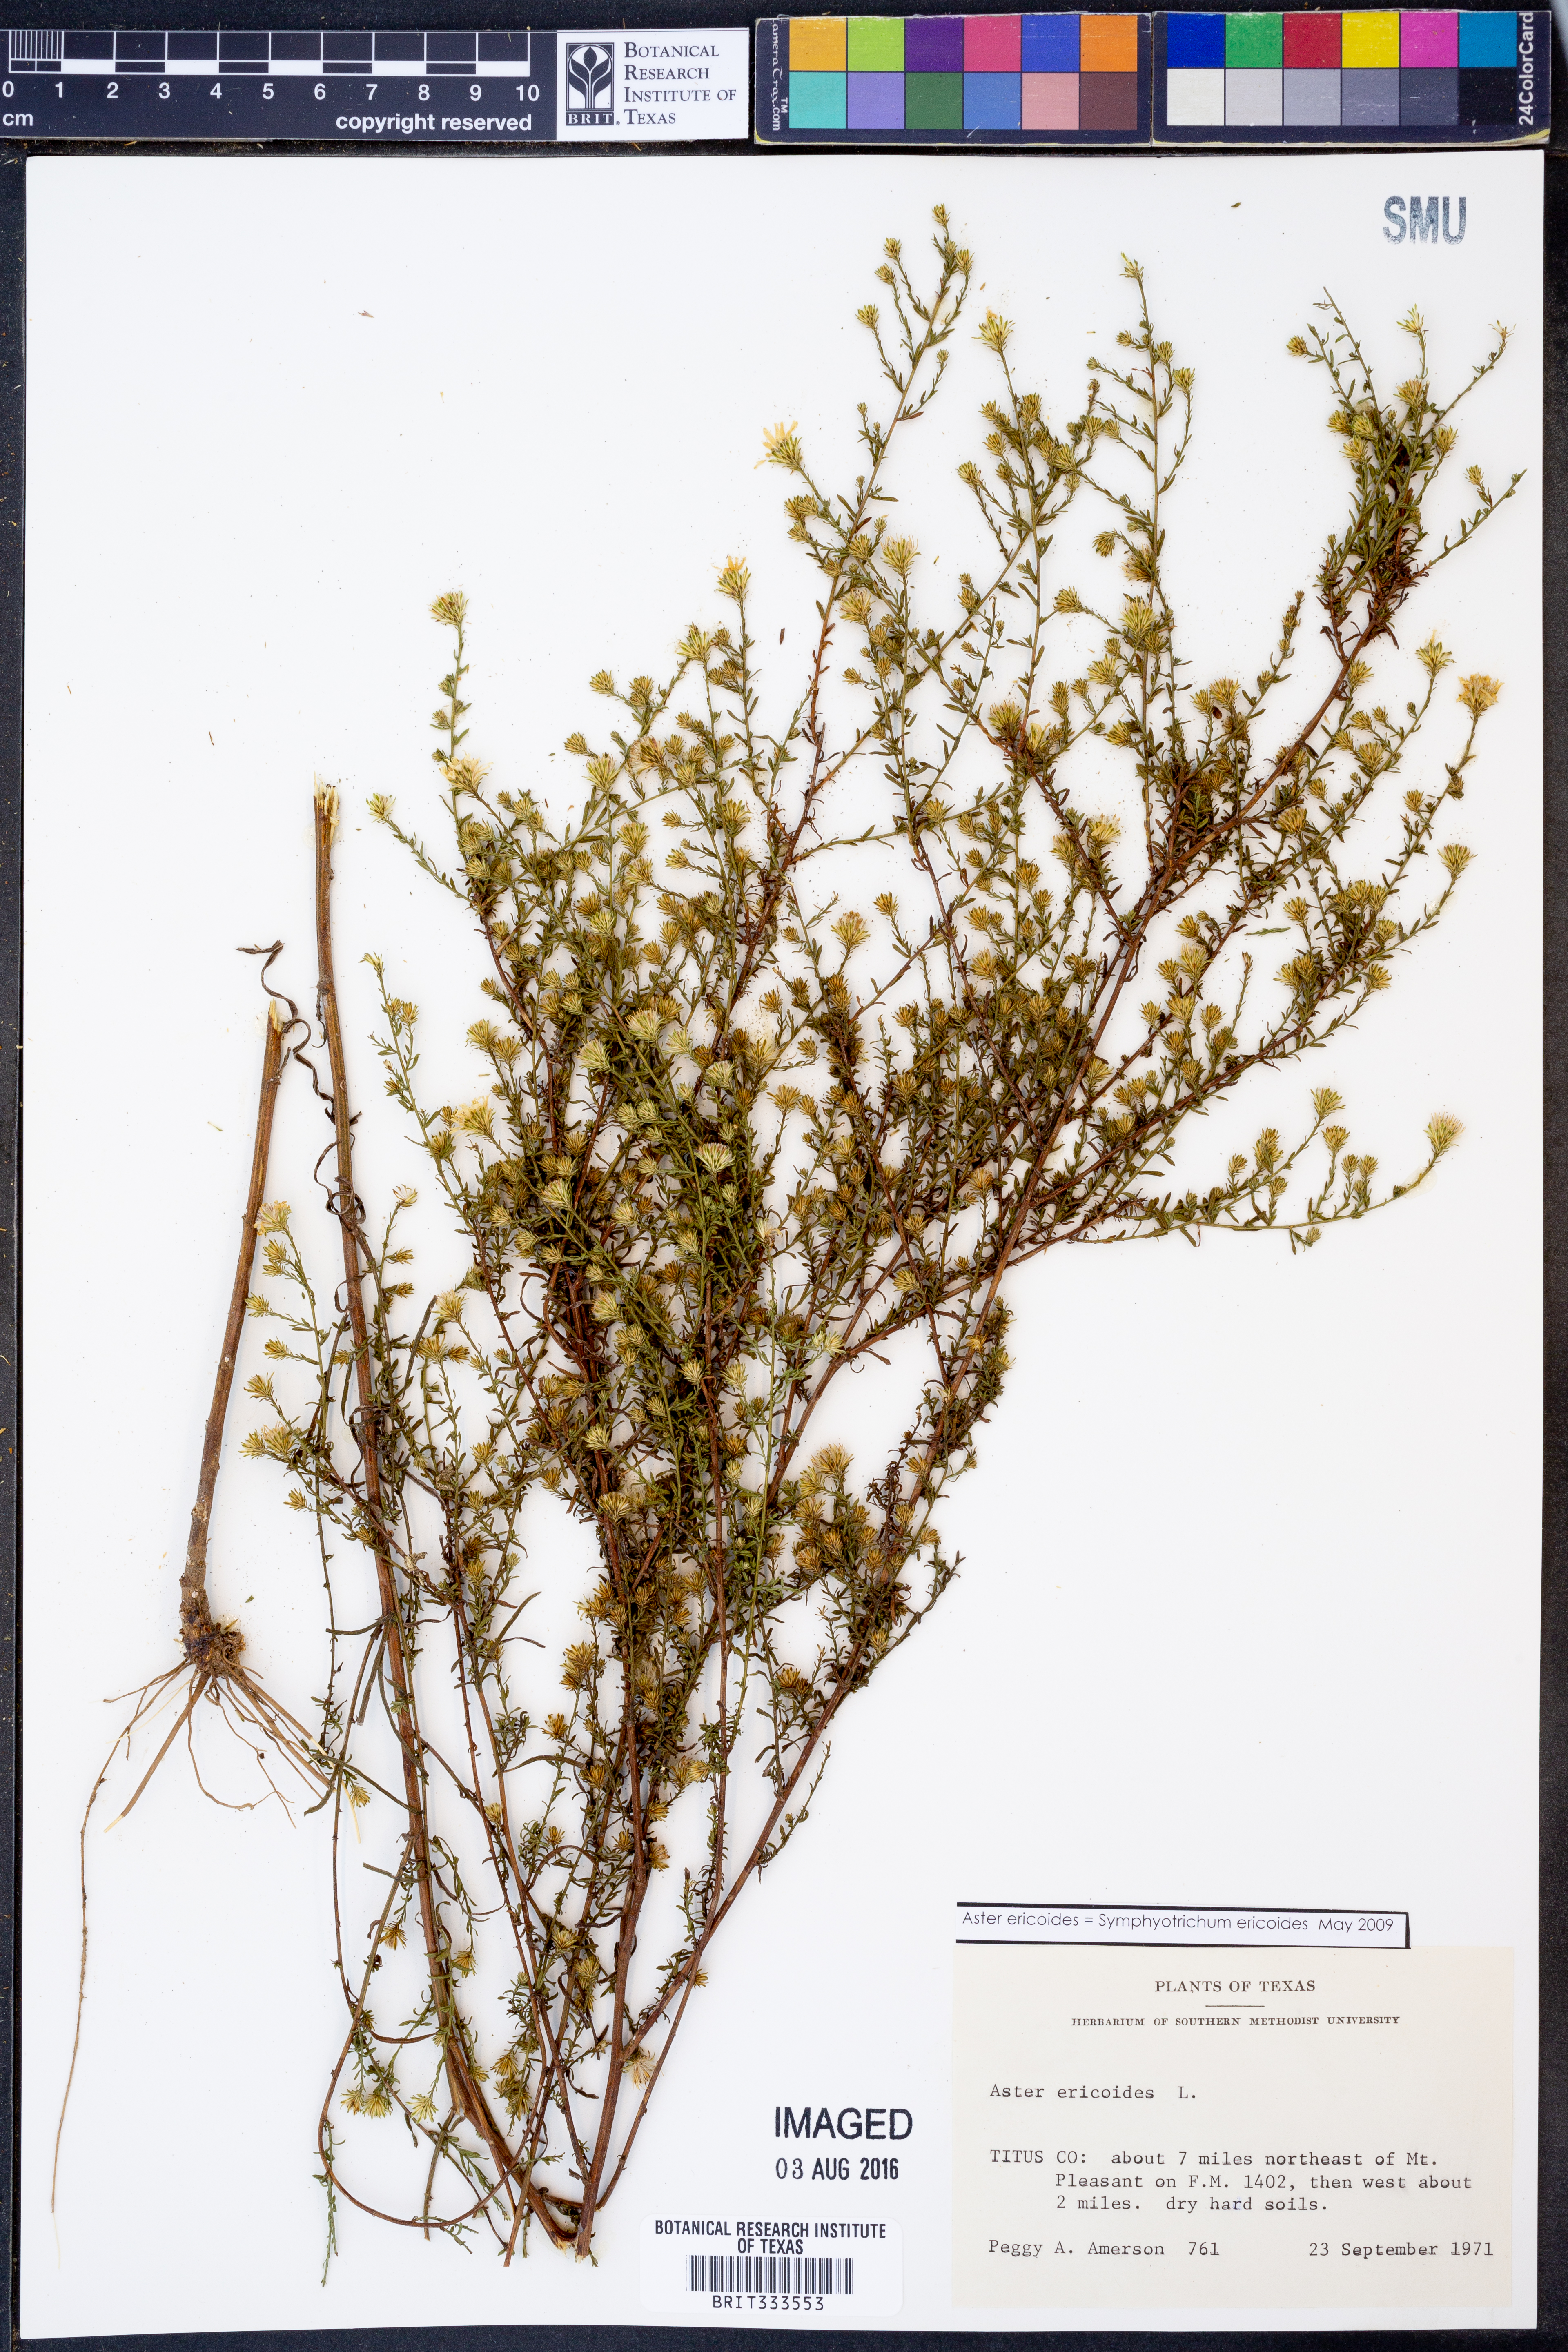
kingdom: Plantae
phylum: Tracheophyta
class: Magnoliopsida
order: Asterales
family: Asteraceae
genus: Symphyotrichum
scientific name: Symphyotrichum ericoides
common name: Heath aster
